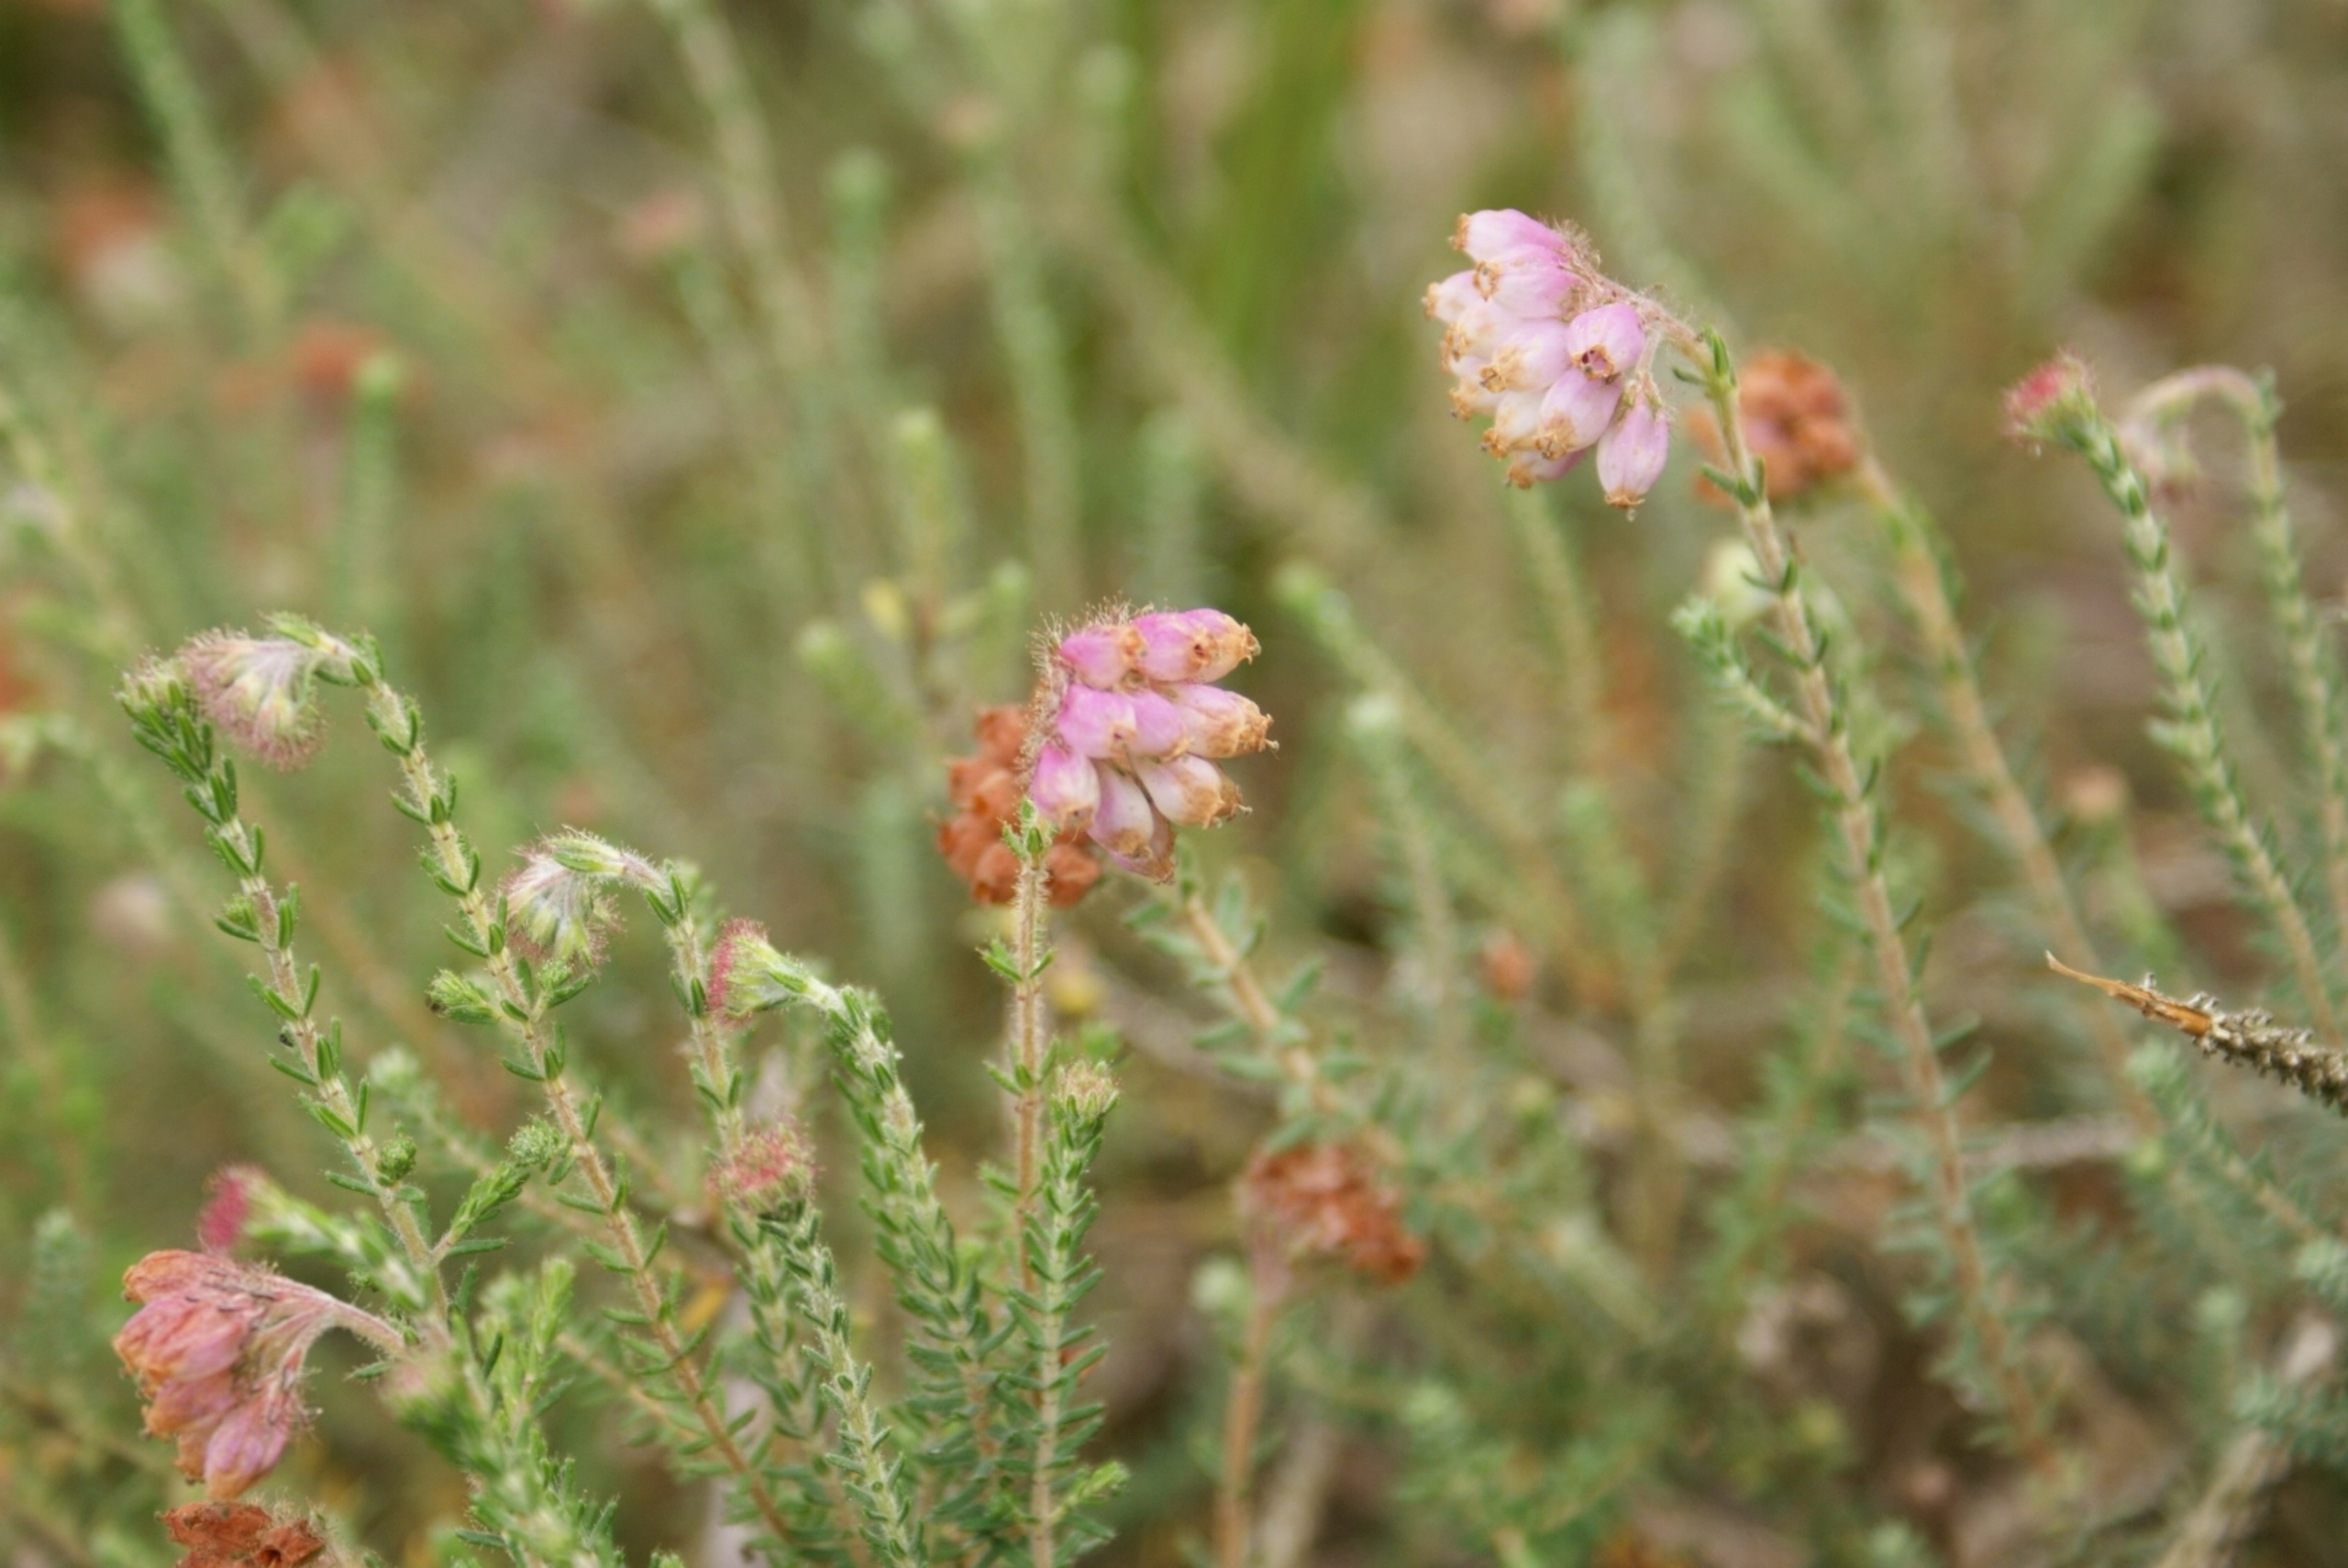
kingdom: Plantae
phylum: Tracheophyta
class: Magnoliopsida
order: Ericales
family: Ericaceae
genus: Erica
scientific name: Erica tetralix
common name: Klokkelyng
